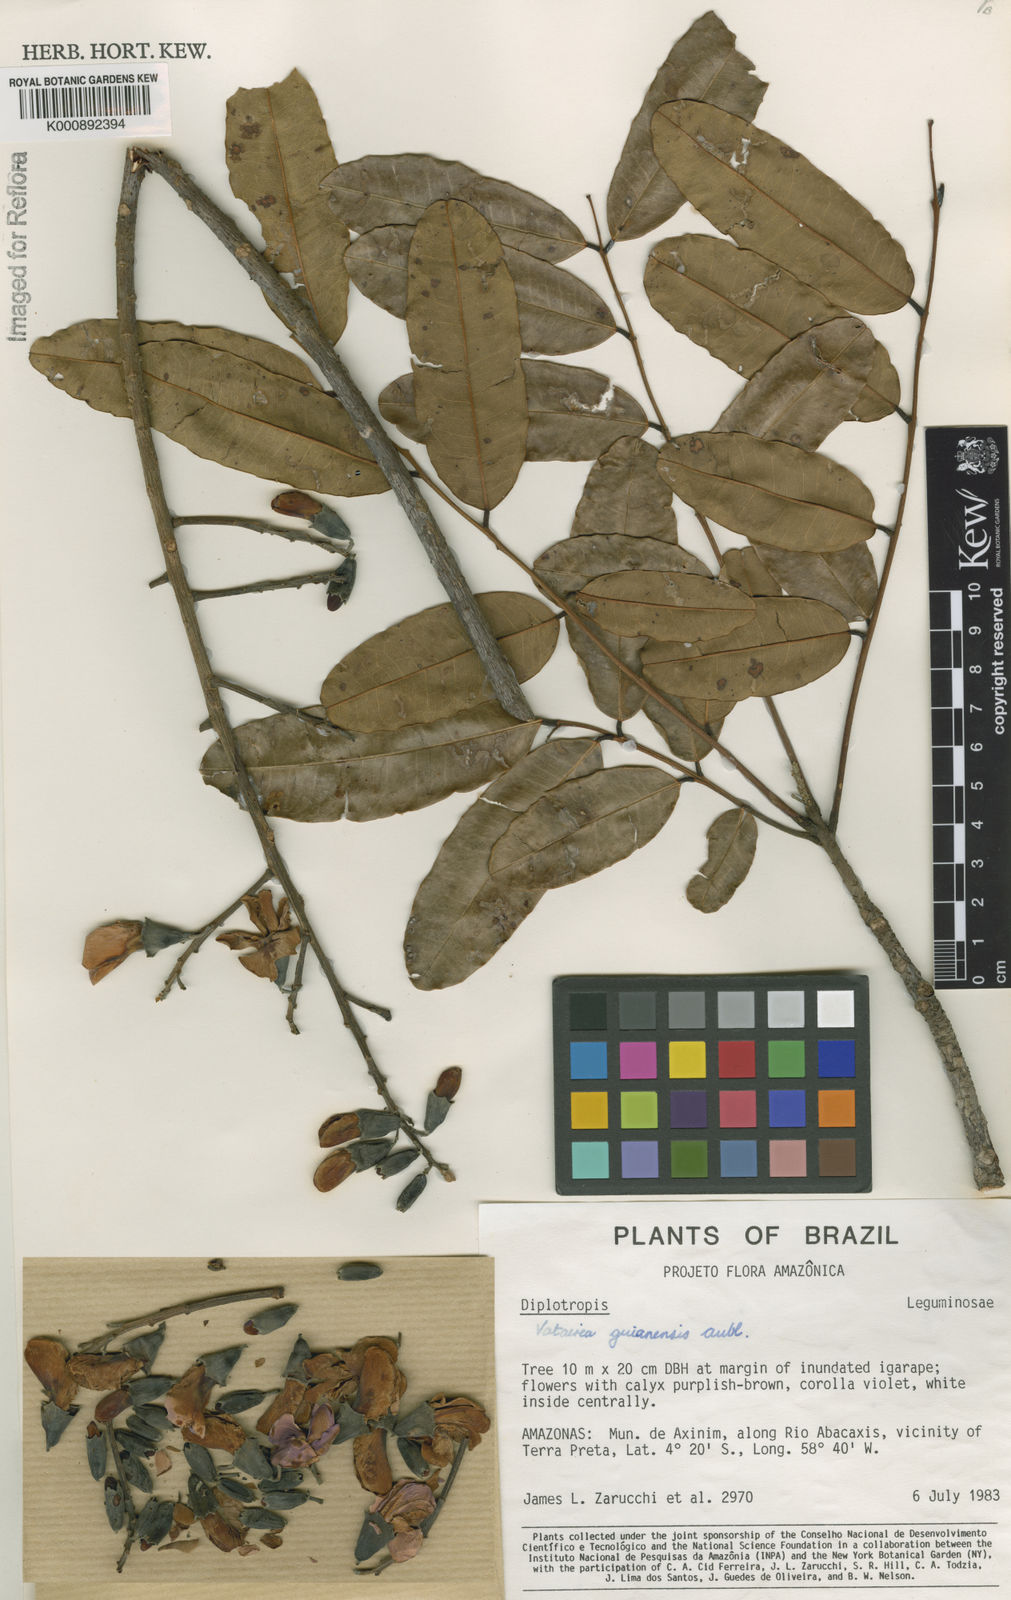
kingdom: Plantae
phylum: Tracheophyta
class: Magnoliopsida
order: Fabales
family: Fabaceae
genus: Vatairea
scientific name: Vatairea guianensis
